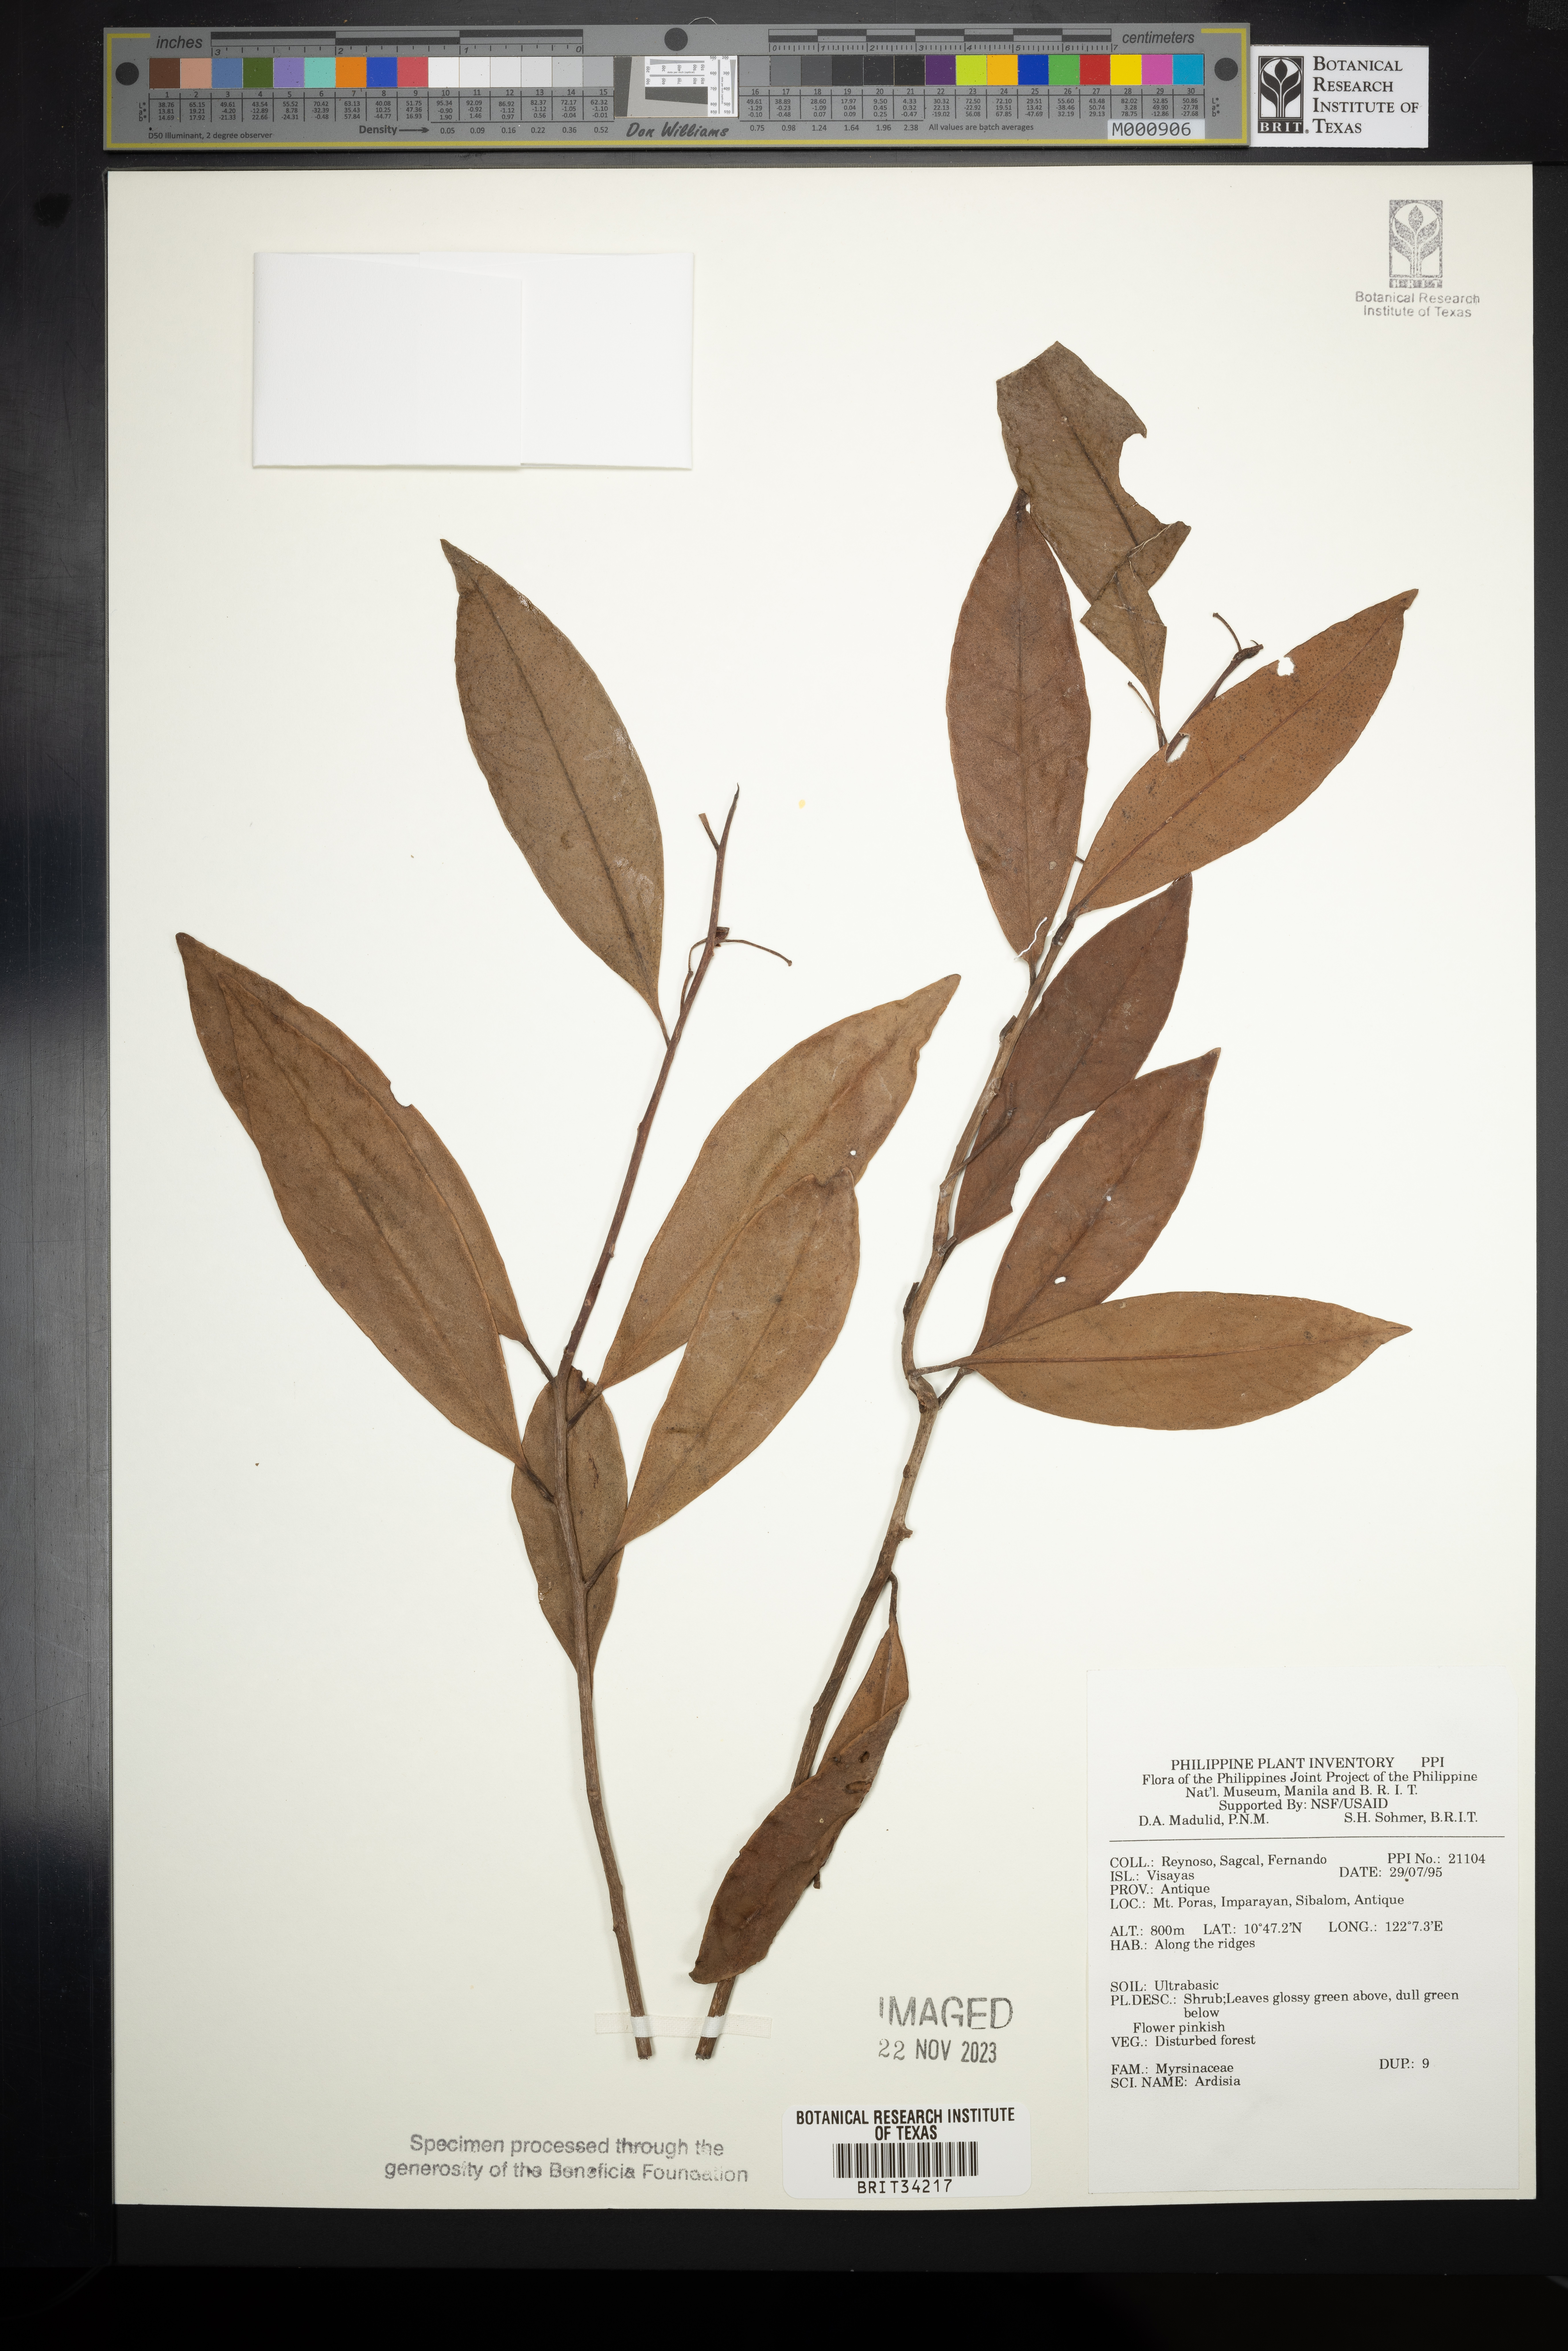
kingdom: Plantae
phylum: Tracheophyta
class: Magnoliopsida
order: Ericales
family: Primulaceae
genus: Ardisia
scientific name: Ardisia
